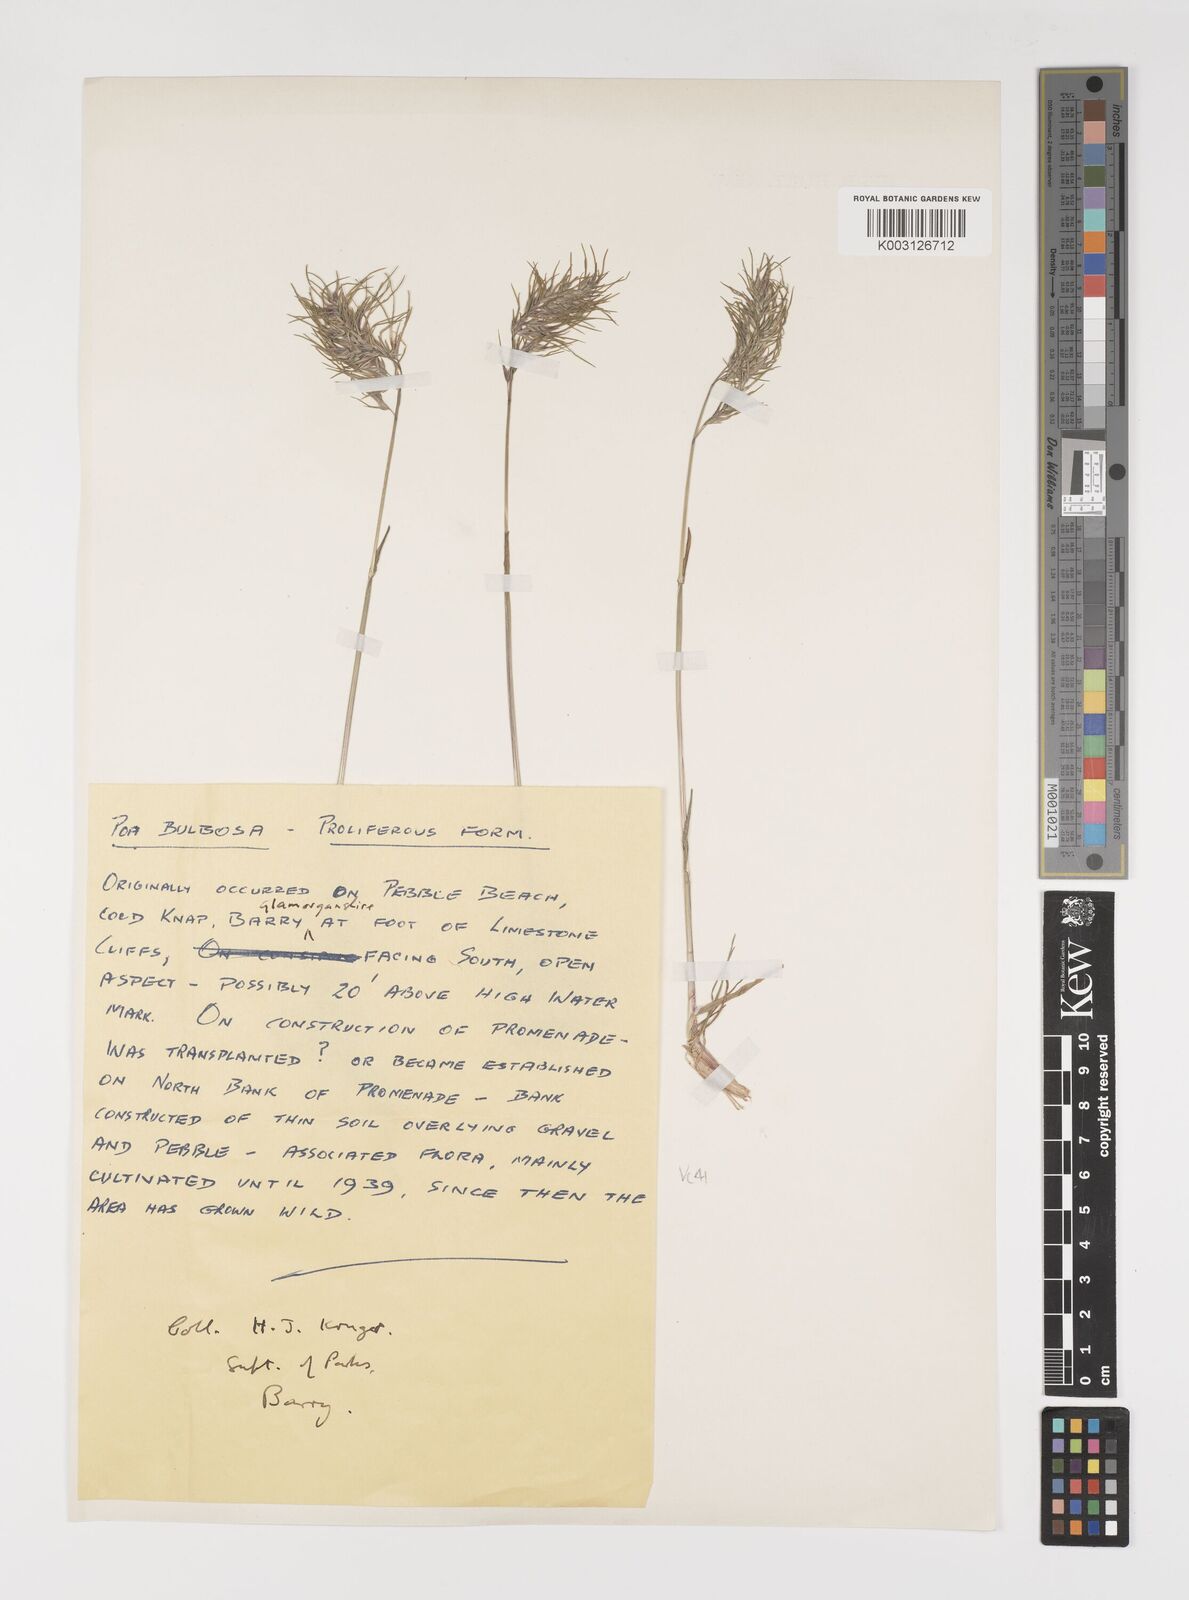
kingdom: Plantae
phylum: Tracheophyta
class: Liliopsida
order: Poales
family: Poaceae
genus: Poa
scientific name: Poa bulbosa
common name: Bulbous bluegrass
